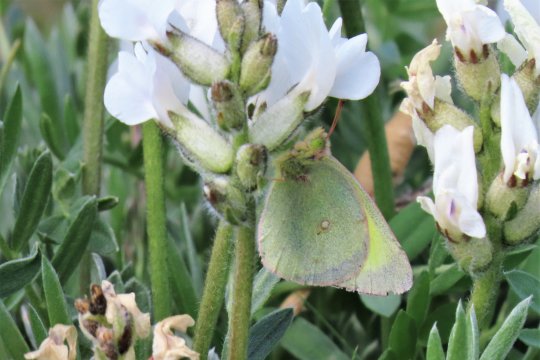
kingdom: Animalia
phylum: Arthropoda
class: Insecta
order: Lepidoptera
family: Pieridae
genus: Colias
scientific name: Colias scudderi
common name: Scudder's Sulphur
